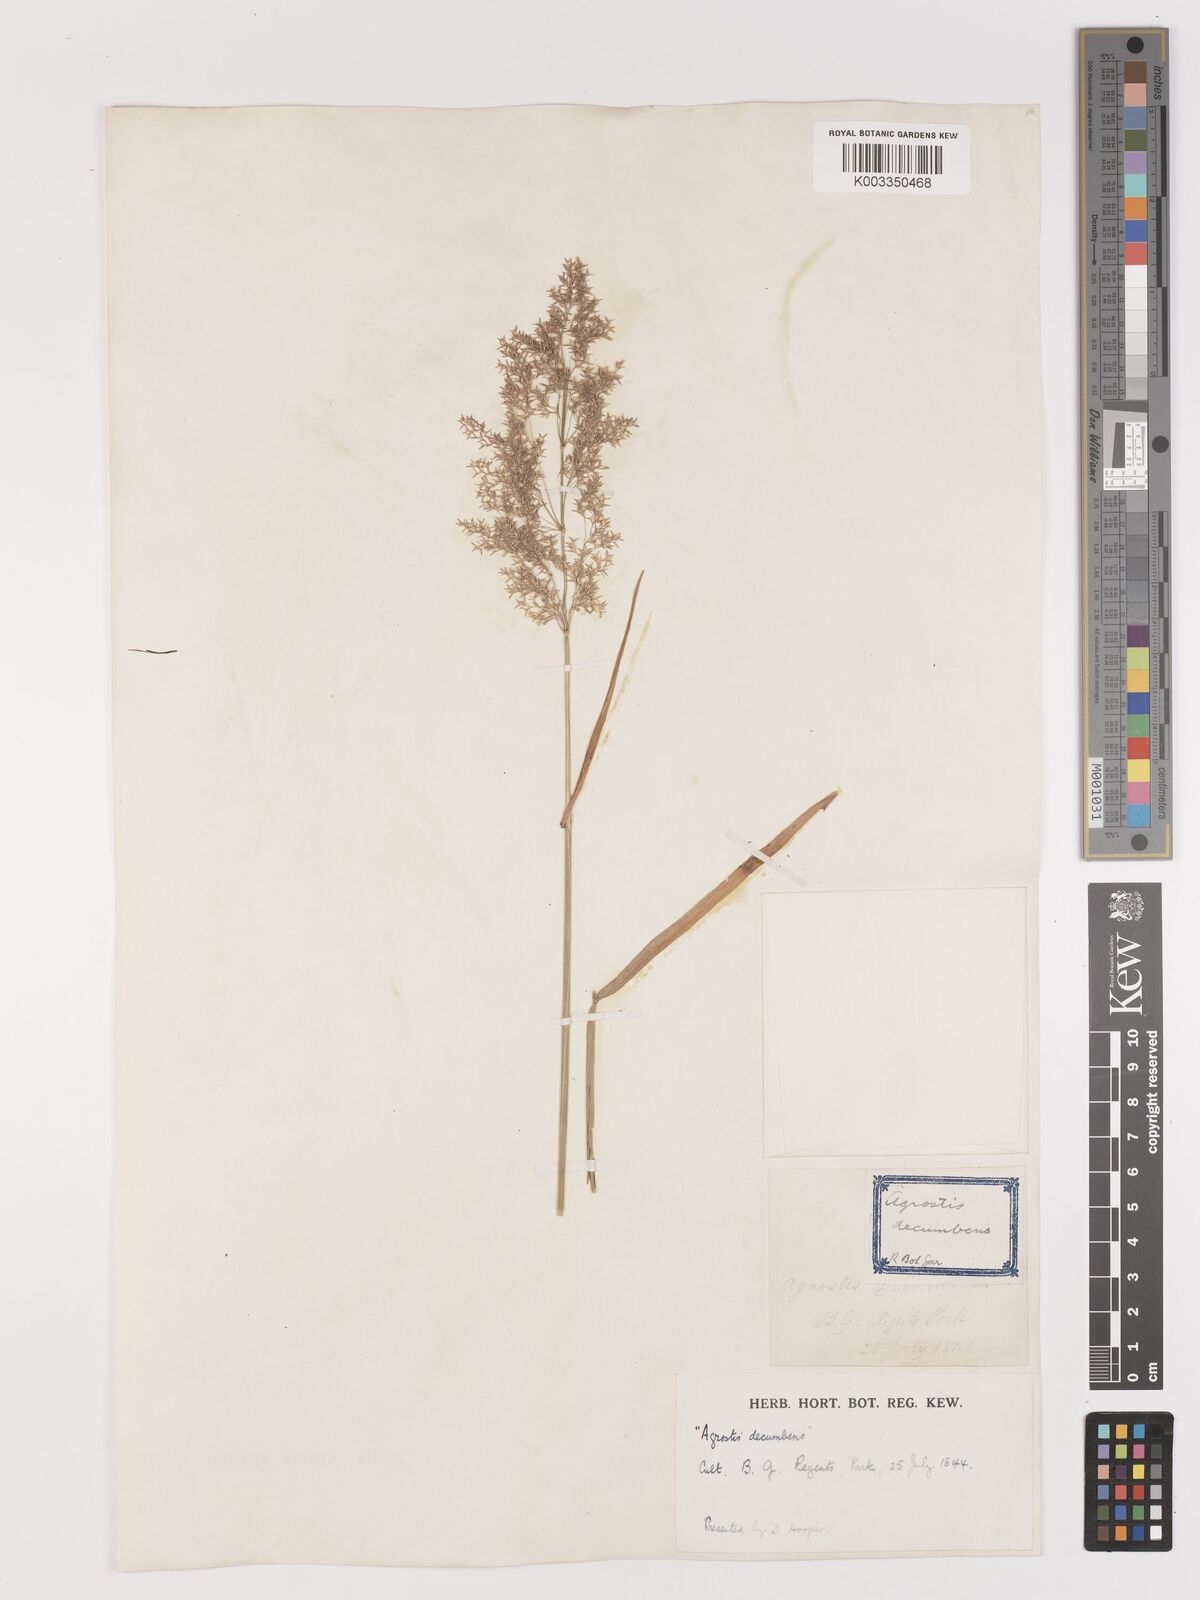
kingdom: Plantae
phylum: Tracheophyta
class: Liliopsida
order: Poales
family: Poaceae
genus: Agrostis
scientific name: Agrostis gigantea
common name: Black bent
